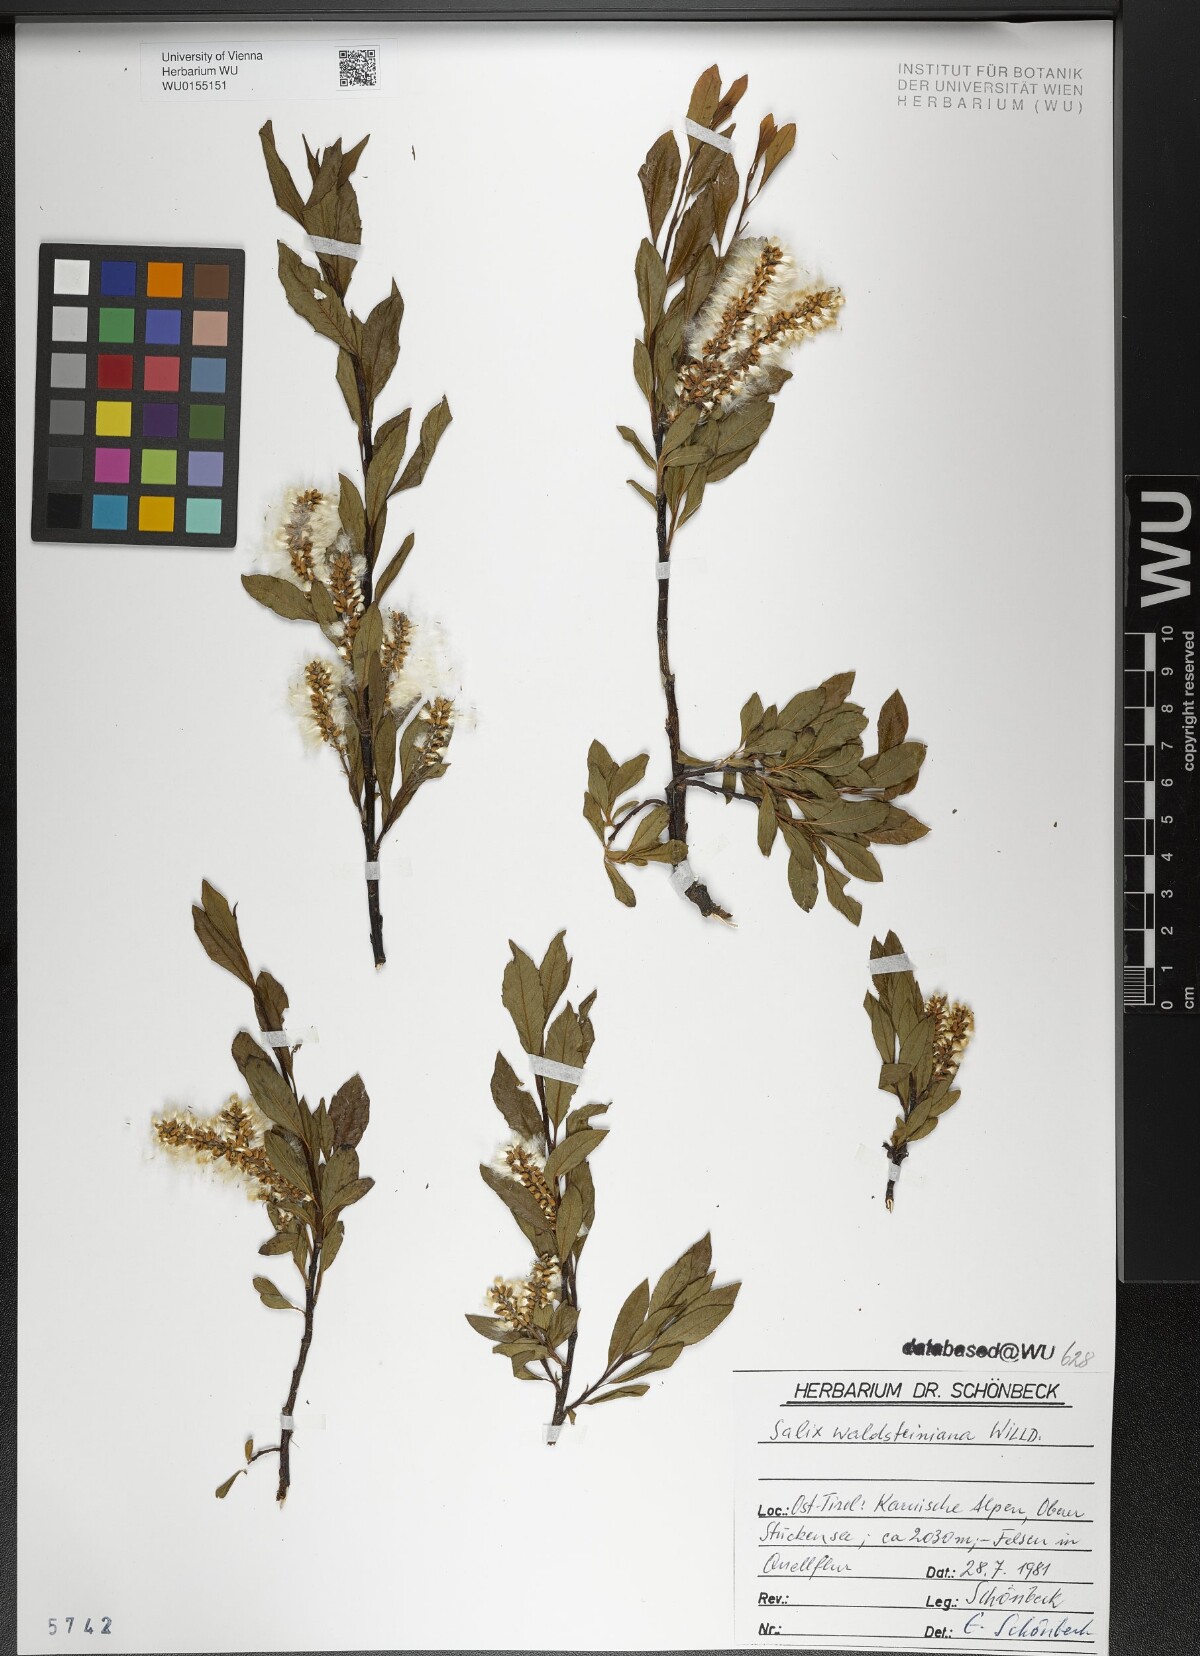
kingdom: Plantae
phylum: Tracheophyta
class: Magnoliopsida
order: Malpighiales
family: Salicaceae
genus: Salix
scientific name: Salix waldsteiniana
